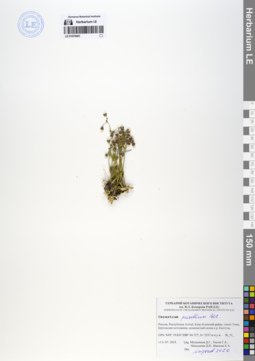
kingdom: Plantae
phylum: Tracheophyta
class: Magnoliopsida
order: Caryophyllales
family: Caryophyllaceae
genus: Cerastium
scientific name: Cerastium pusillum
